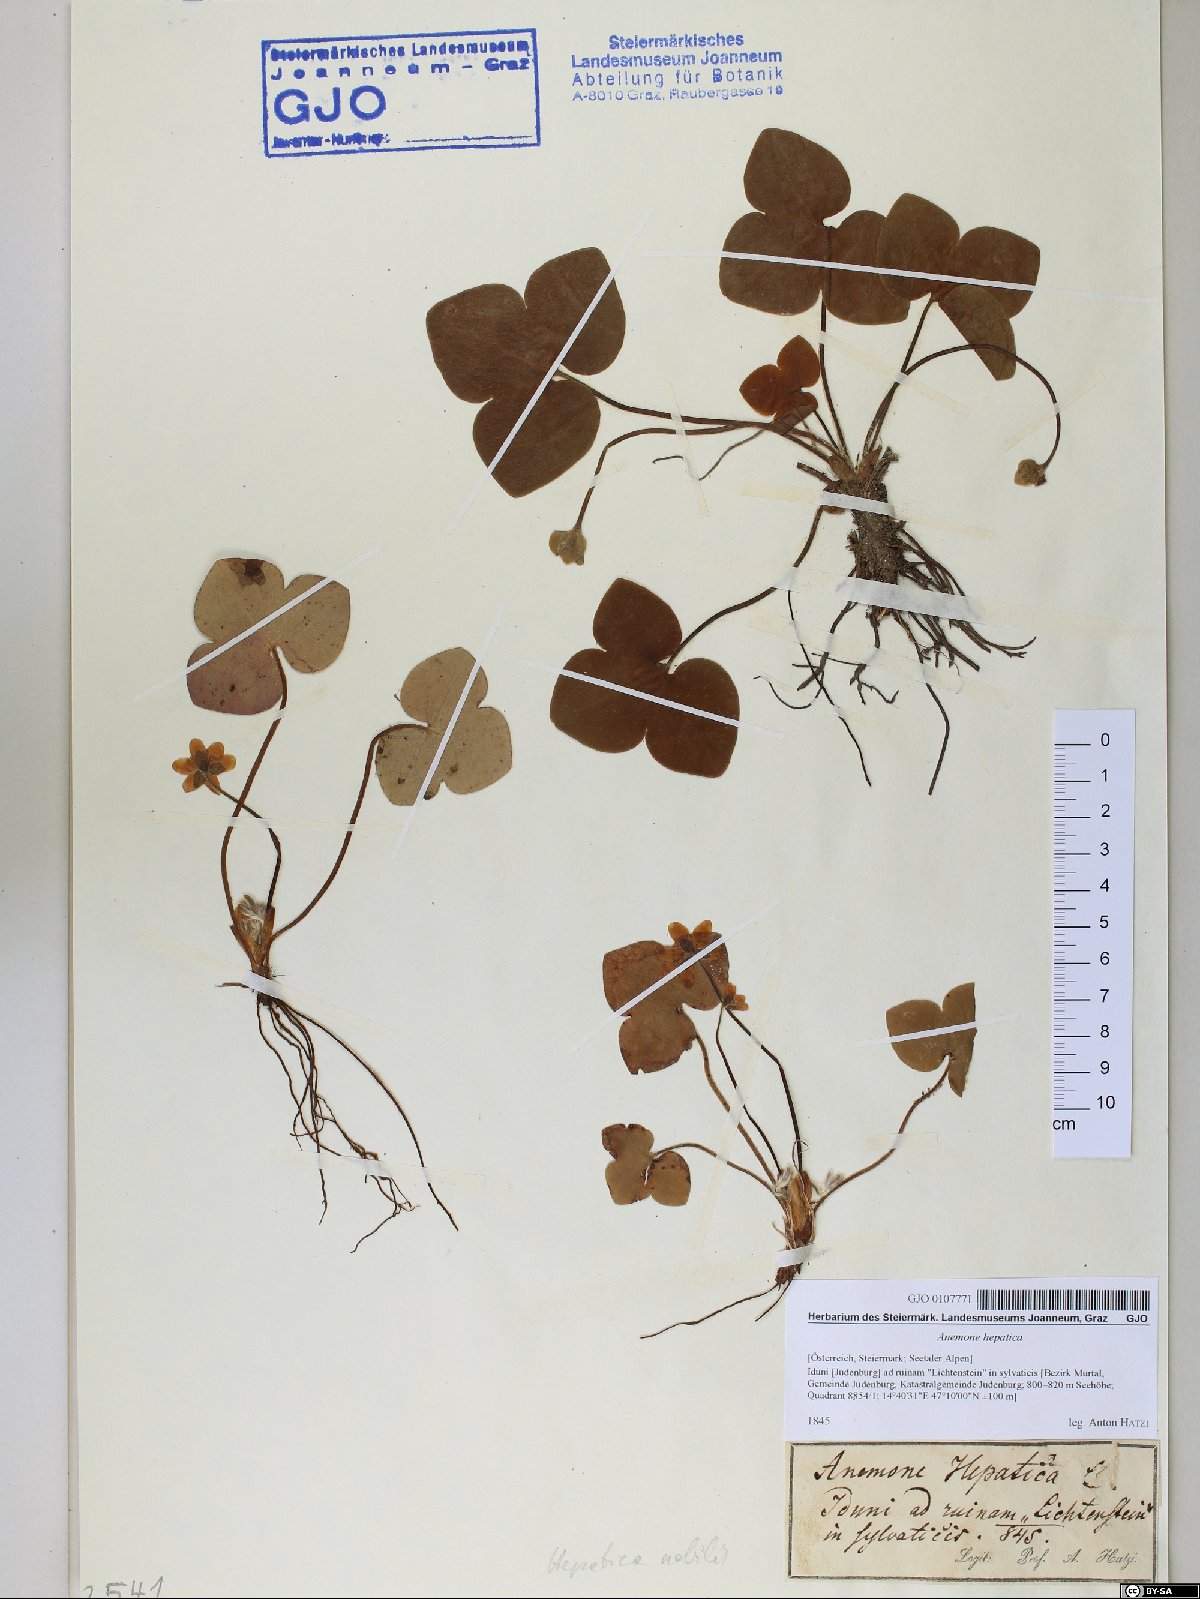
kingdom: Plantae
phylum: Tracheophyta
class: Magnoliopsida
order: Ranunculales
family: Ranunculaceae
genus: Hepatica
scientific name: Hepatica nobilis
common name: Liverleaf
